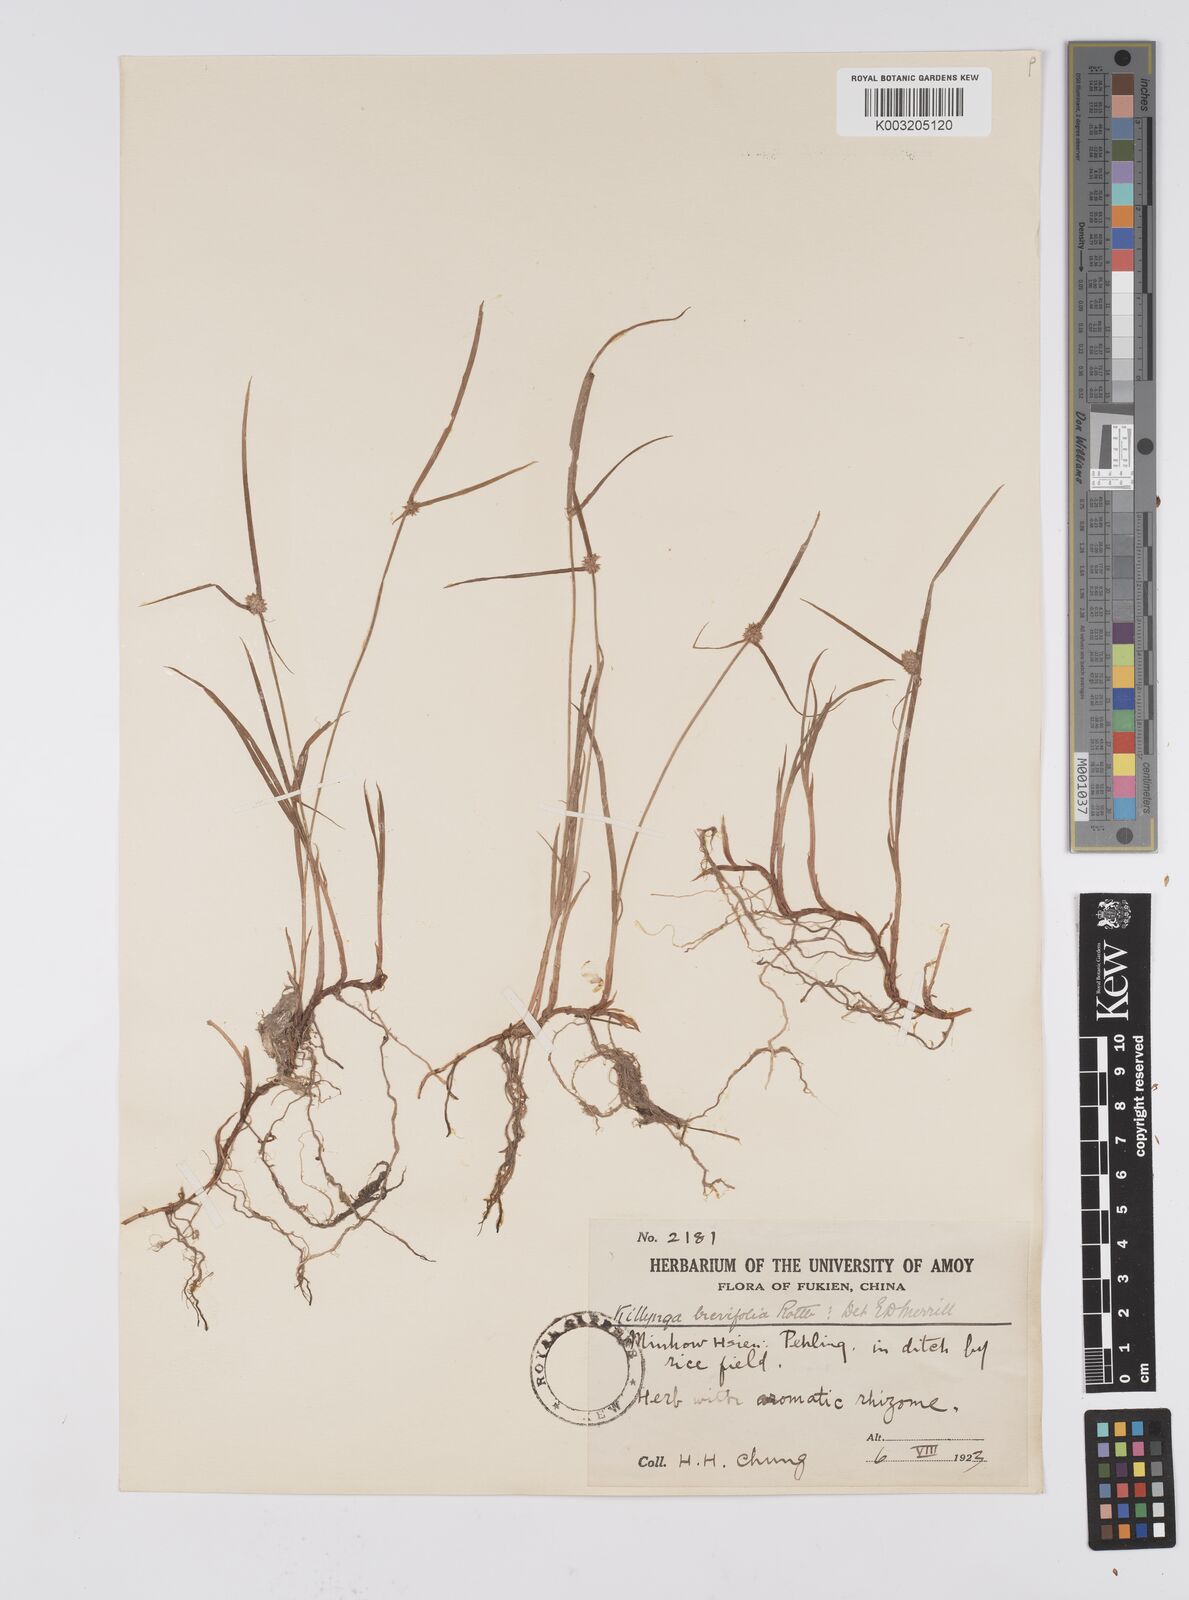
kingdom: Plantae
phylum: Tracheophyta
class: Liliopsida
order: Poales
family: Cyperaceae
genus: Cyperus
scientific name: Cyperus brevifolius
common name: Globe kyllinga
